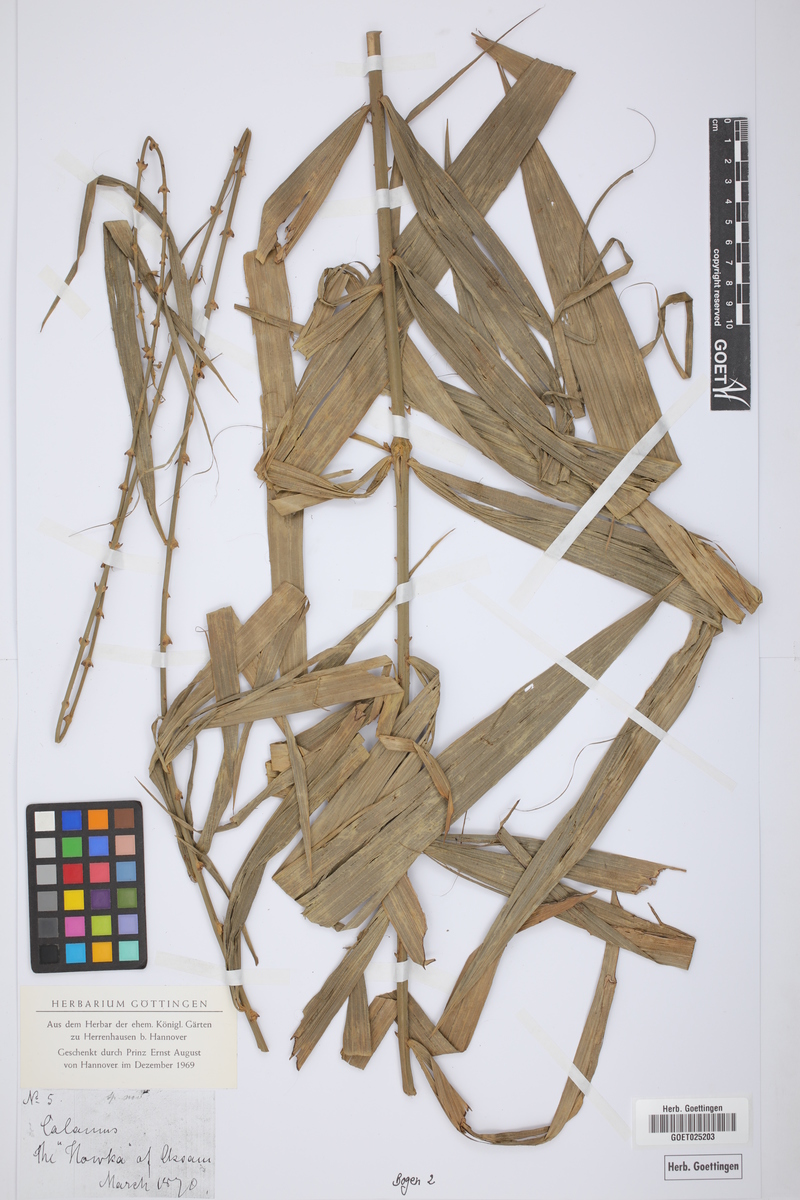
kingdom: Plantae
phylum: Tracheophyta
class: Liliopsida
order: Arecales
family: Arecaceae
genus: Calamus
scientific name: Calamus
